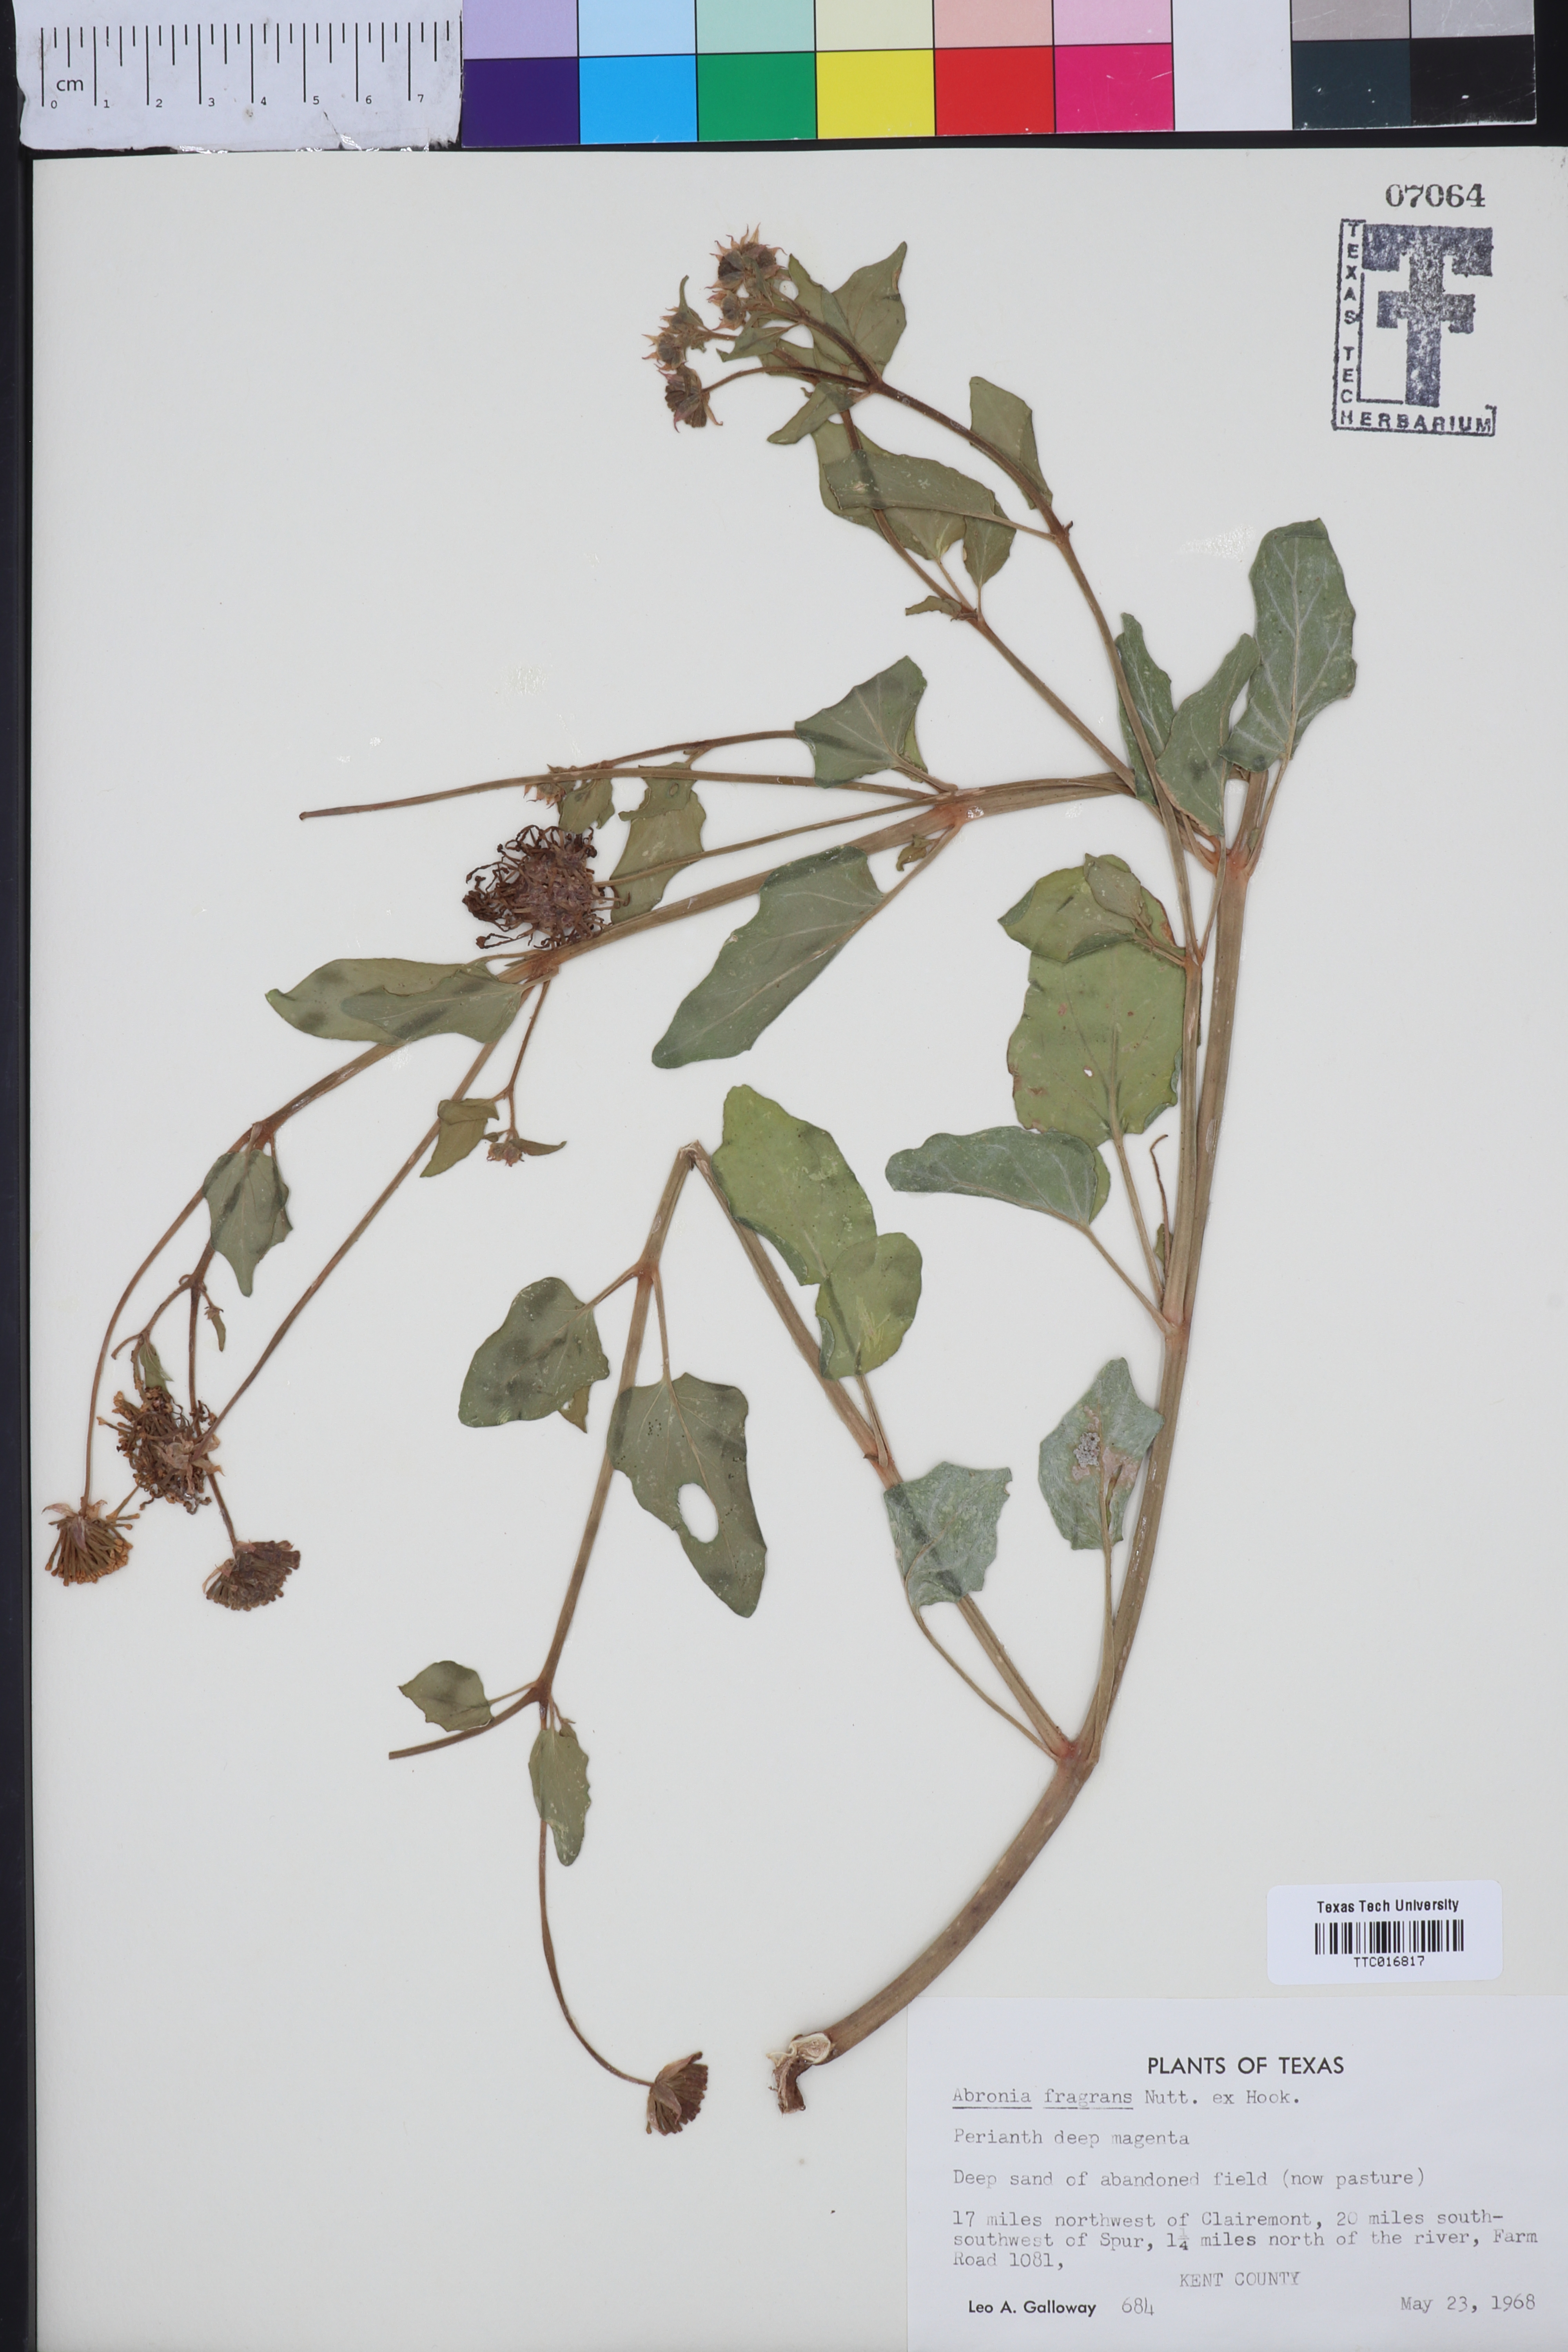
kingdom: Plantae
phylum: Tracheophyta
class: Magnoliopsida
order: Caryophyllales
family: Nyctaginaceae
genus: Abronia
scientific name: Abronia fragrans
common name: Fragrant sand-verbena
